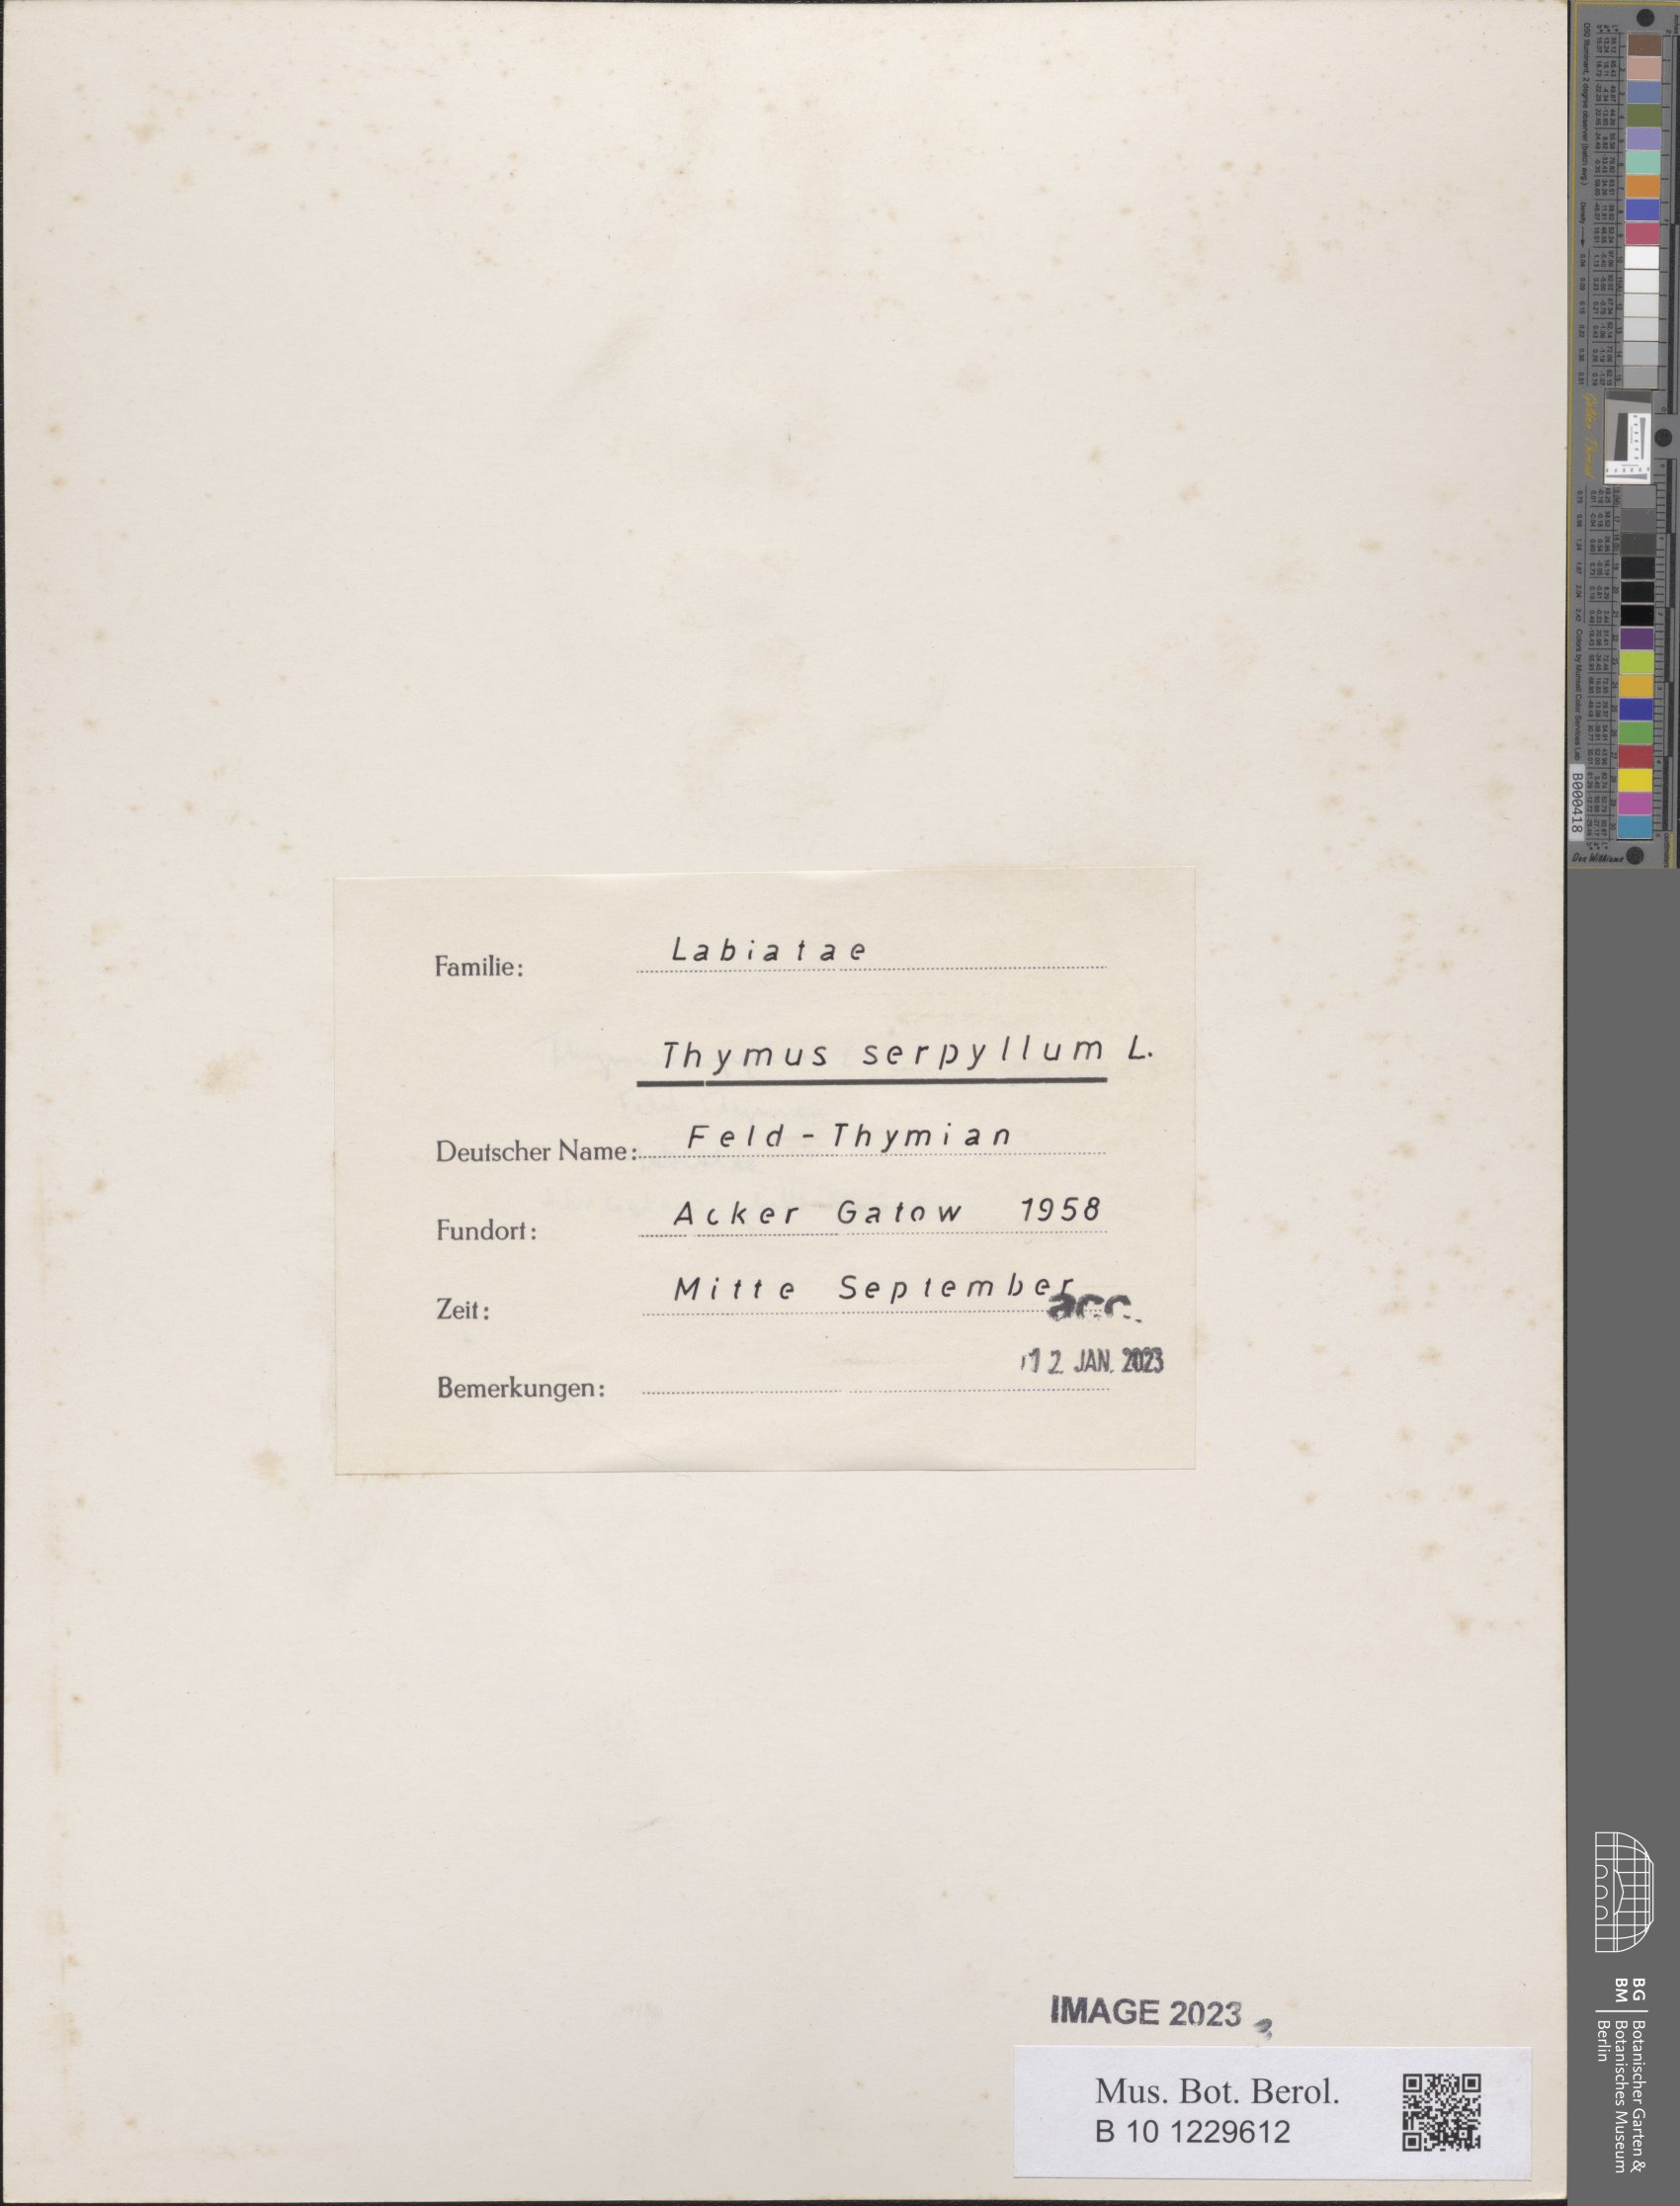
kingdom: Plantae
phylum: Tracheophyta
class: Magnoliopsida
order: Lamiales
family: Lamiaceae
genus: Thymus
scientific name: Thymus serpyllum
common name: Breckland thyme
